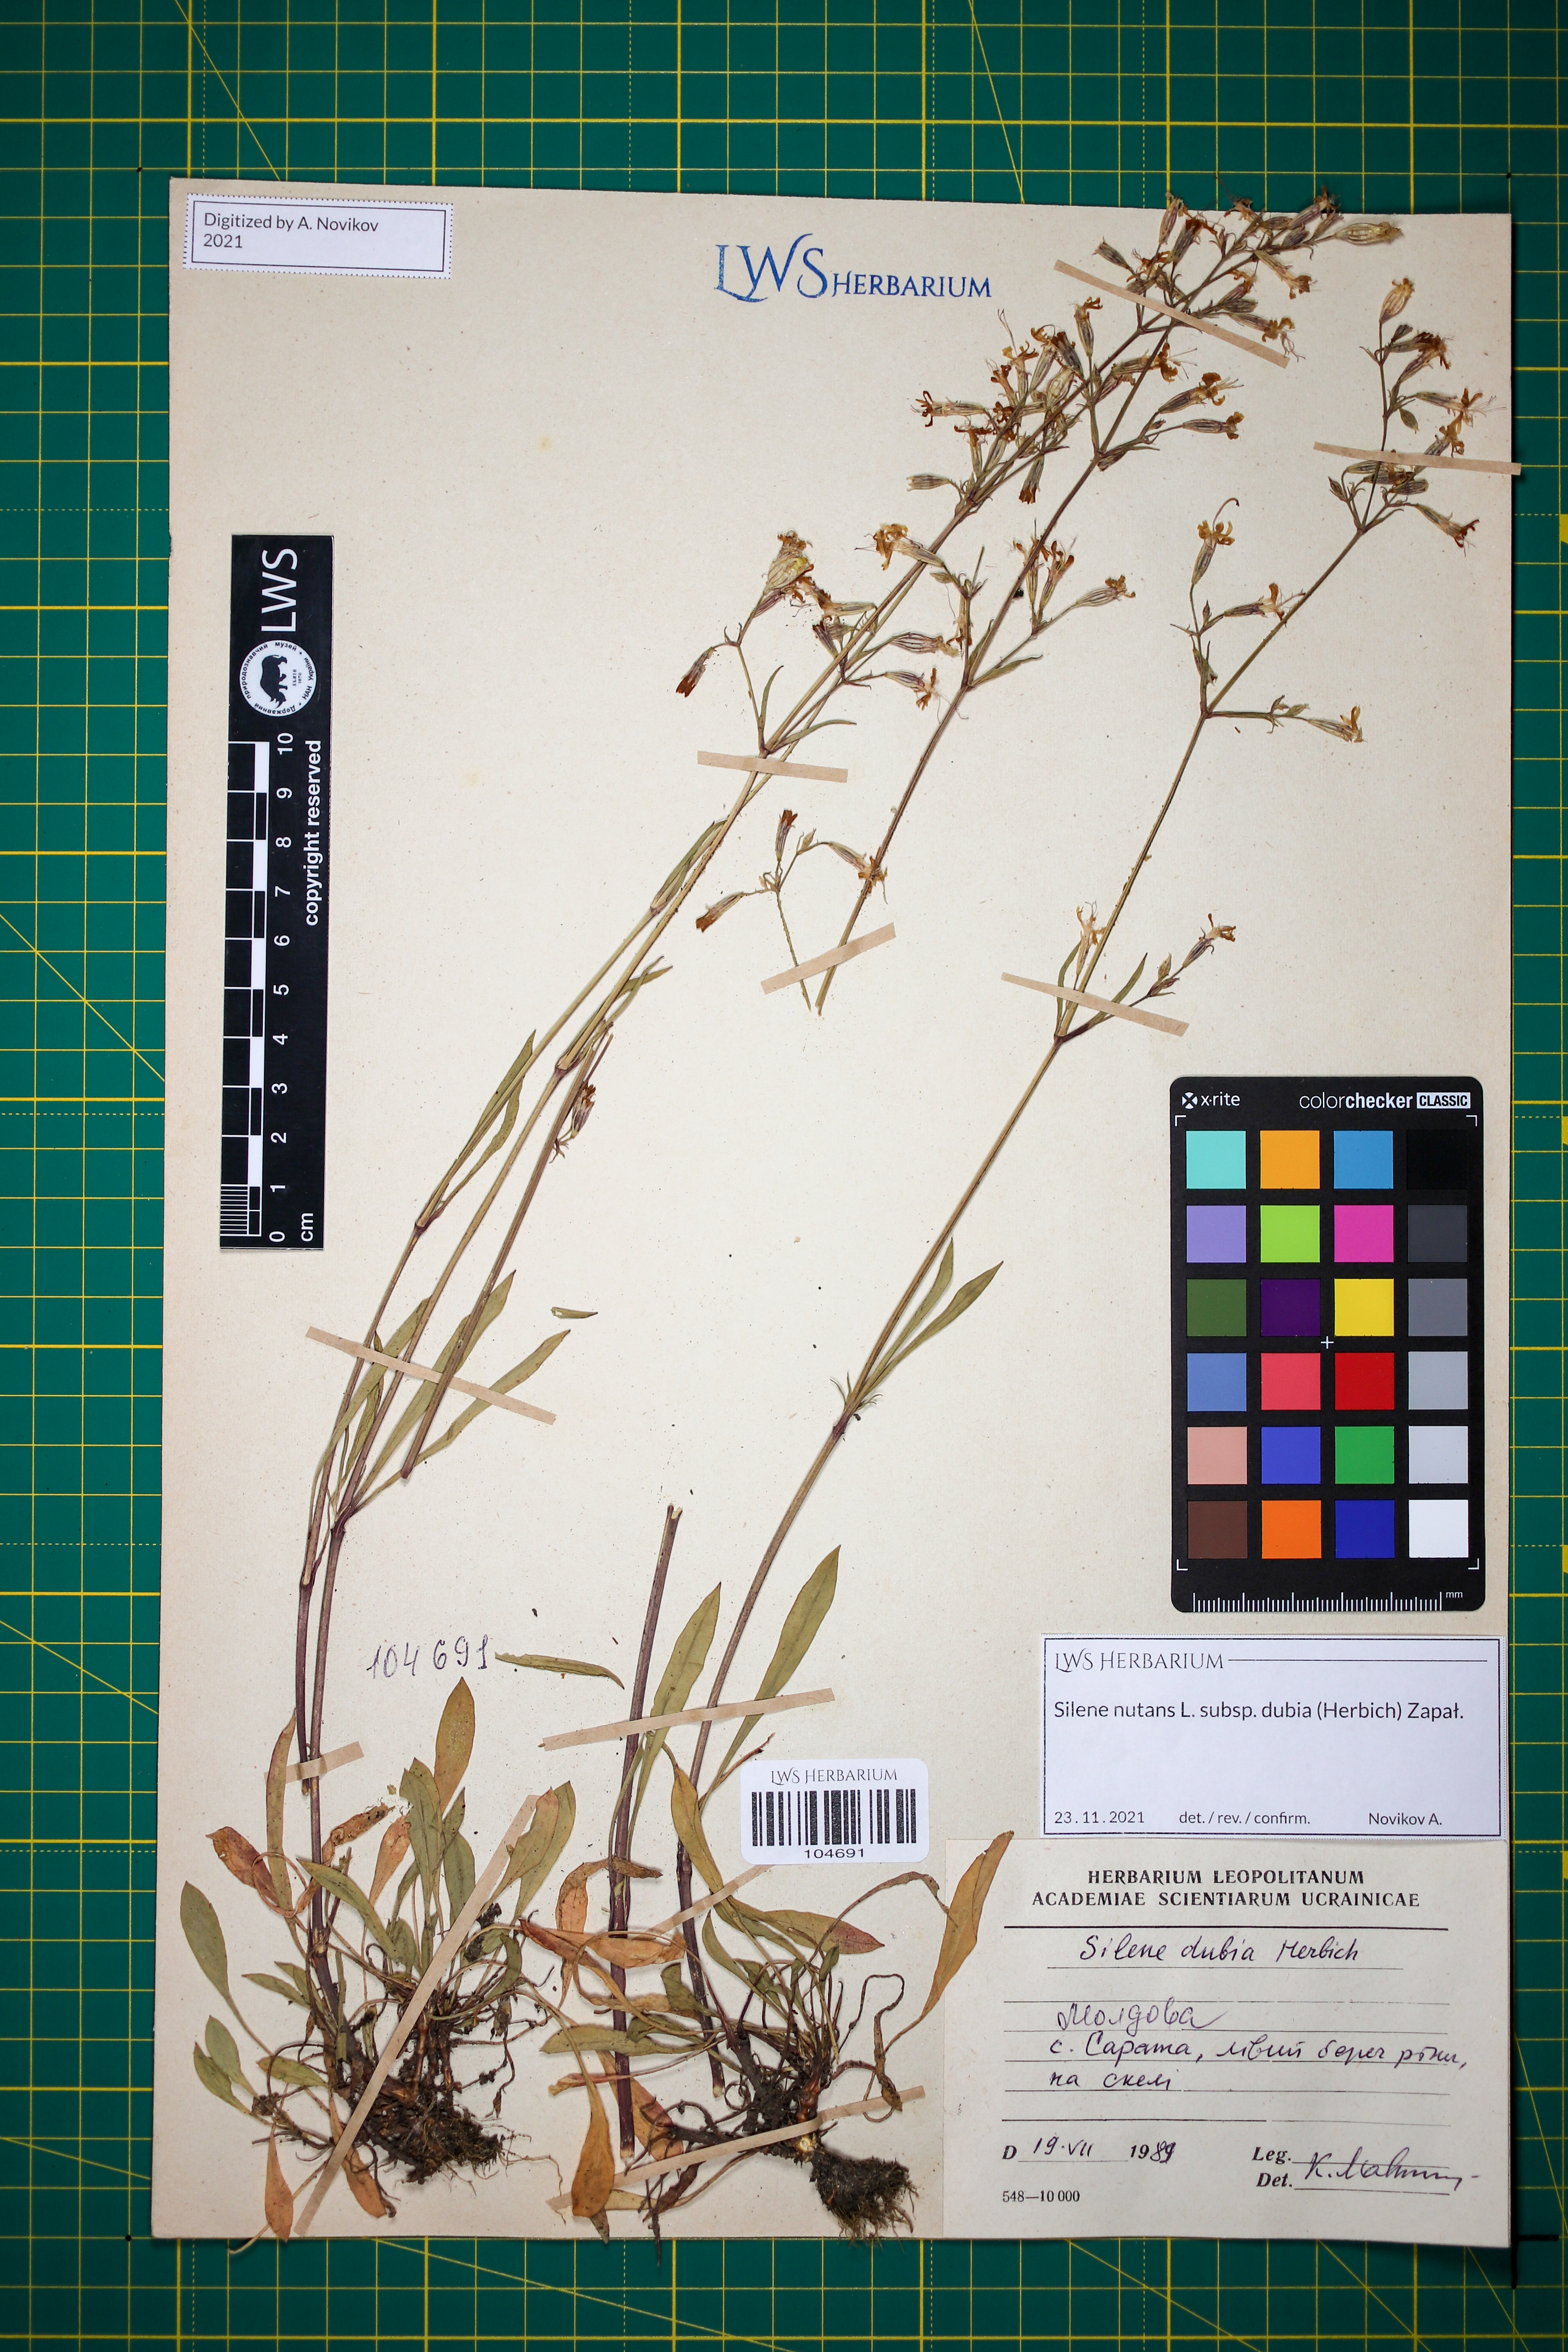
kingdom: Plantae
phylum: Tracheophyta
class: Magnoliopsida
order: Caryophyllales
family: Caryophyllaceae
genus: Silene
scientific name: Silene nutans
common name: Nottingham catchfly
